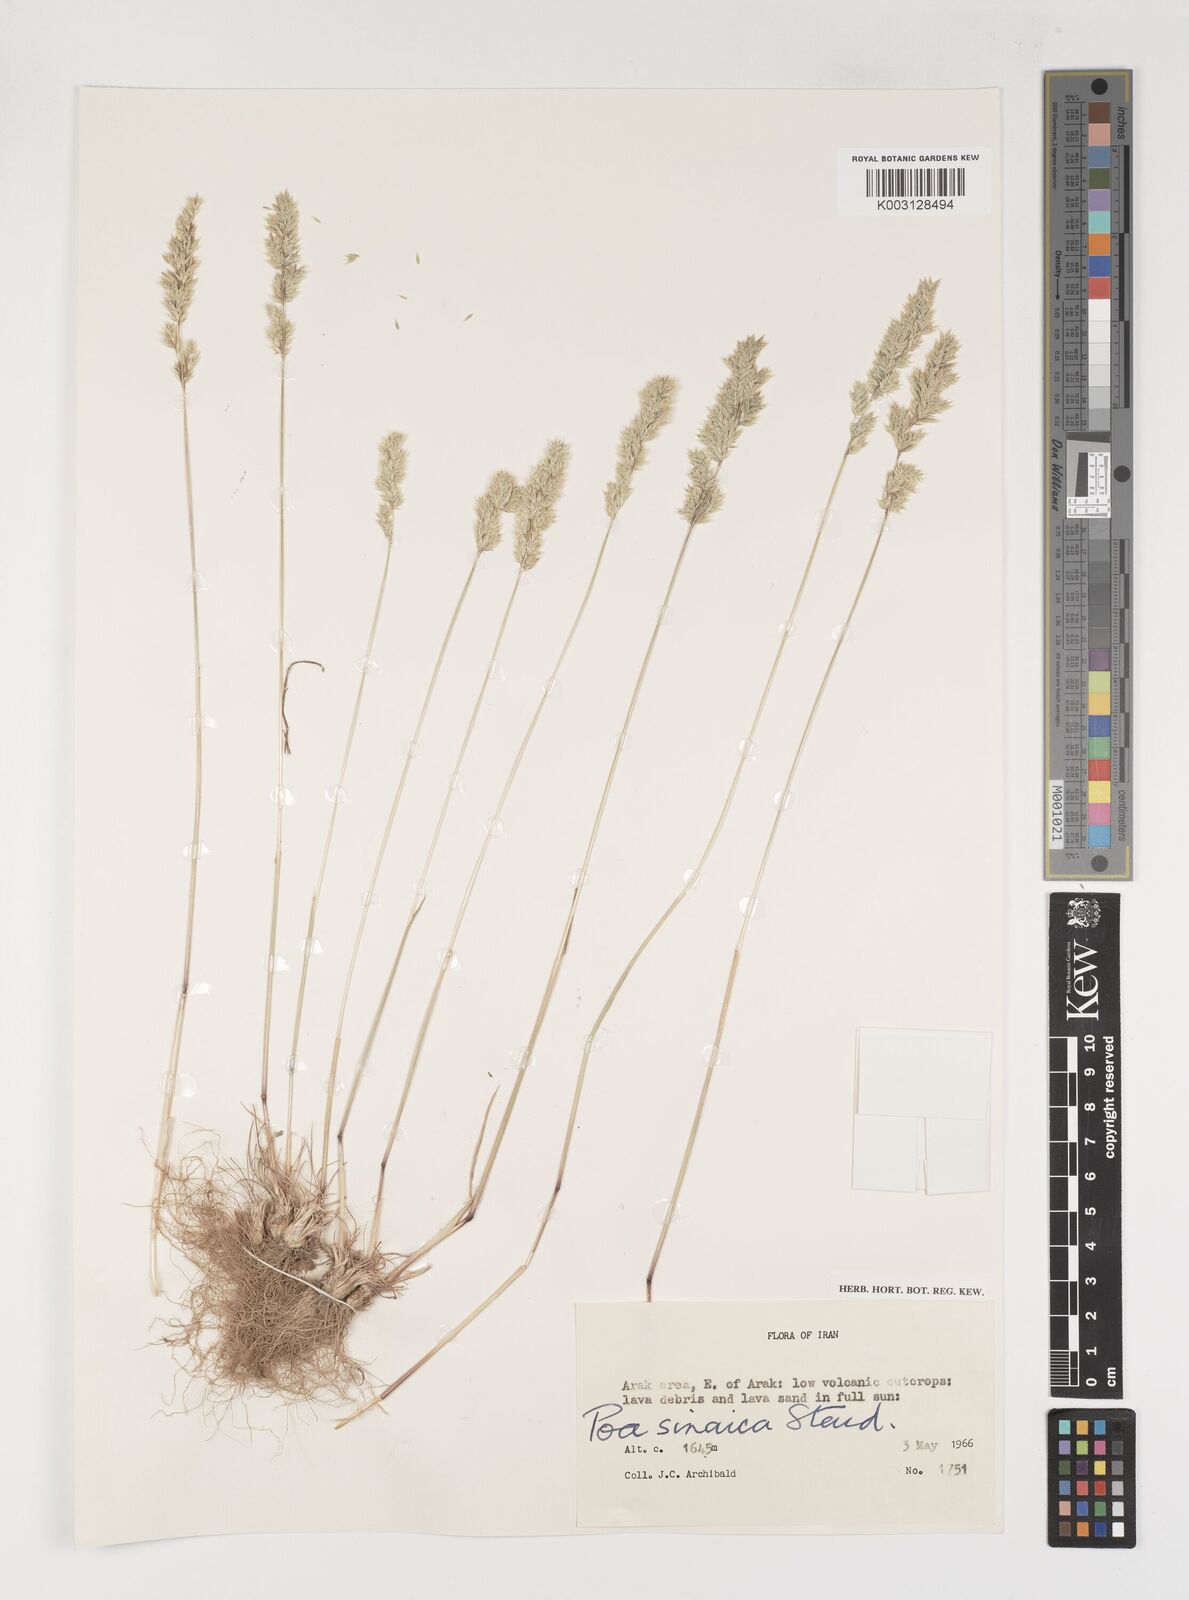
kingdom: Plantae
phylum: Tracheophyta
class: Liliopsida
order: Poales
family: Poaceae
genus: Poa
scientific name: Poa sinaica
